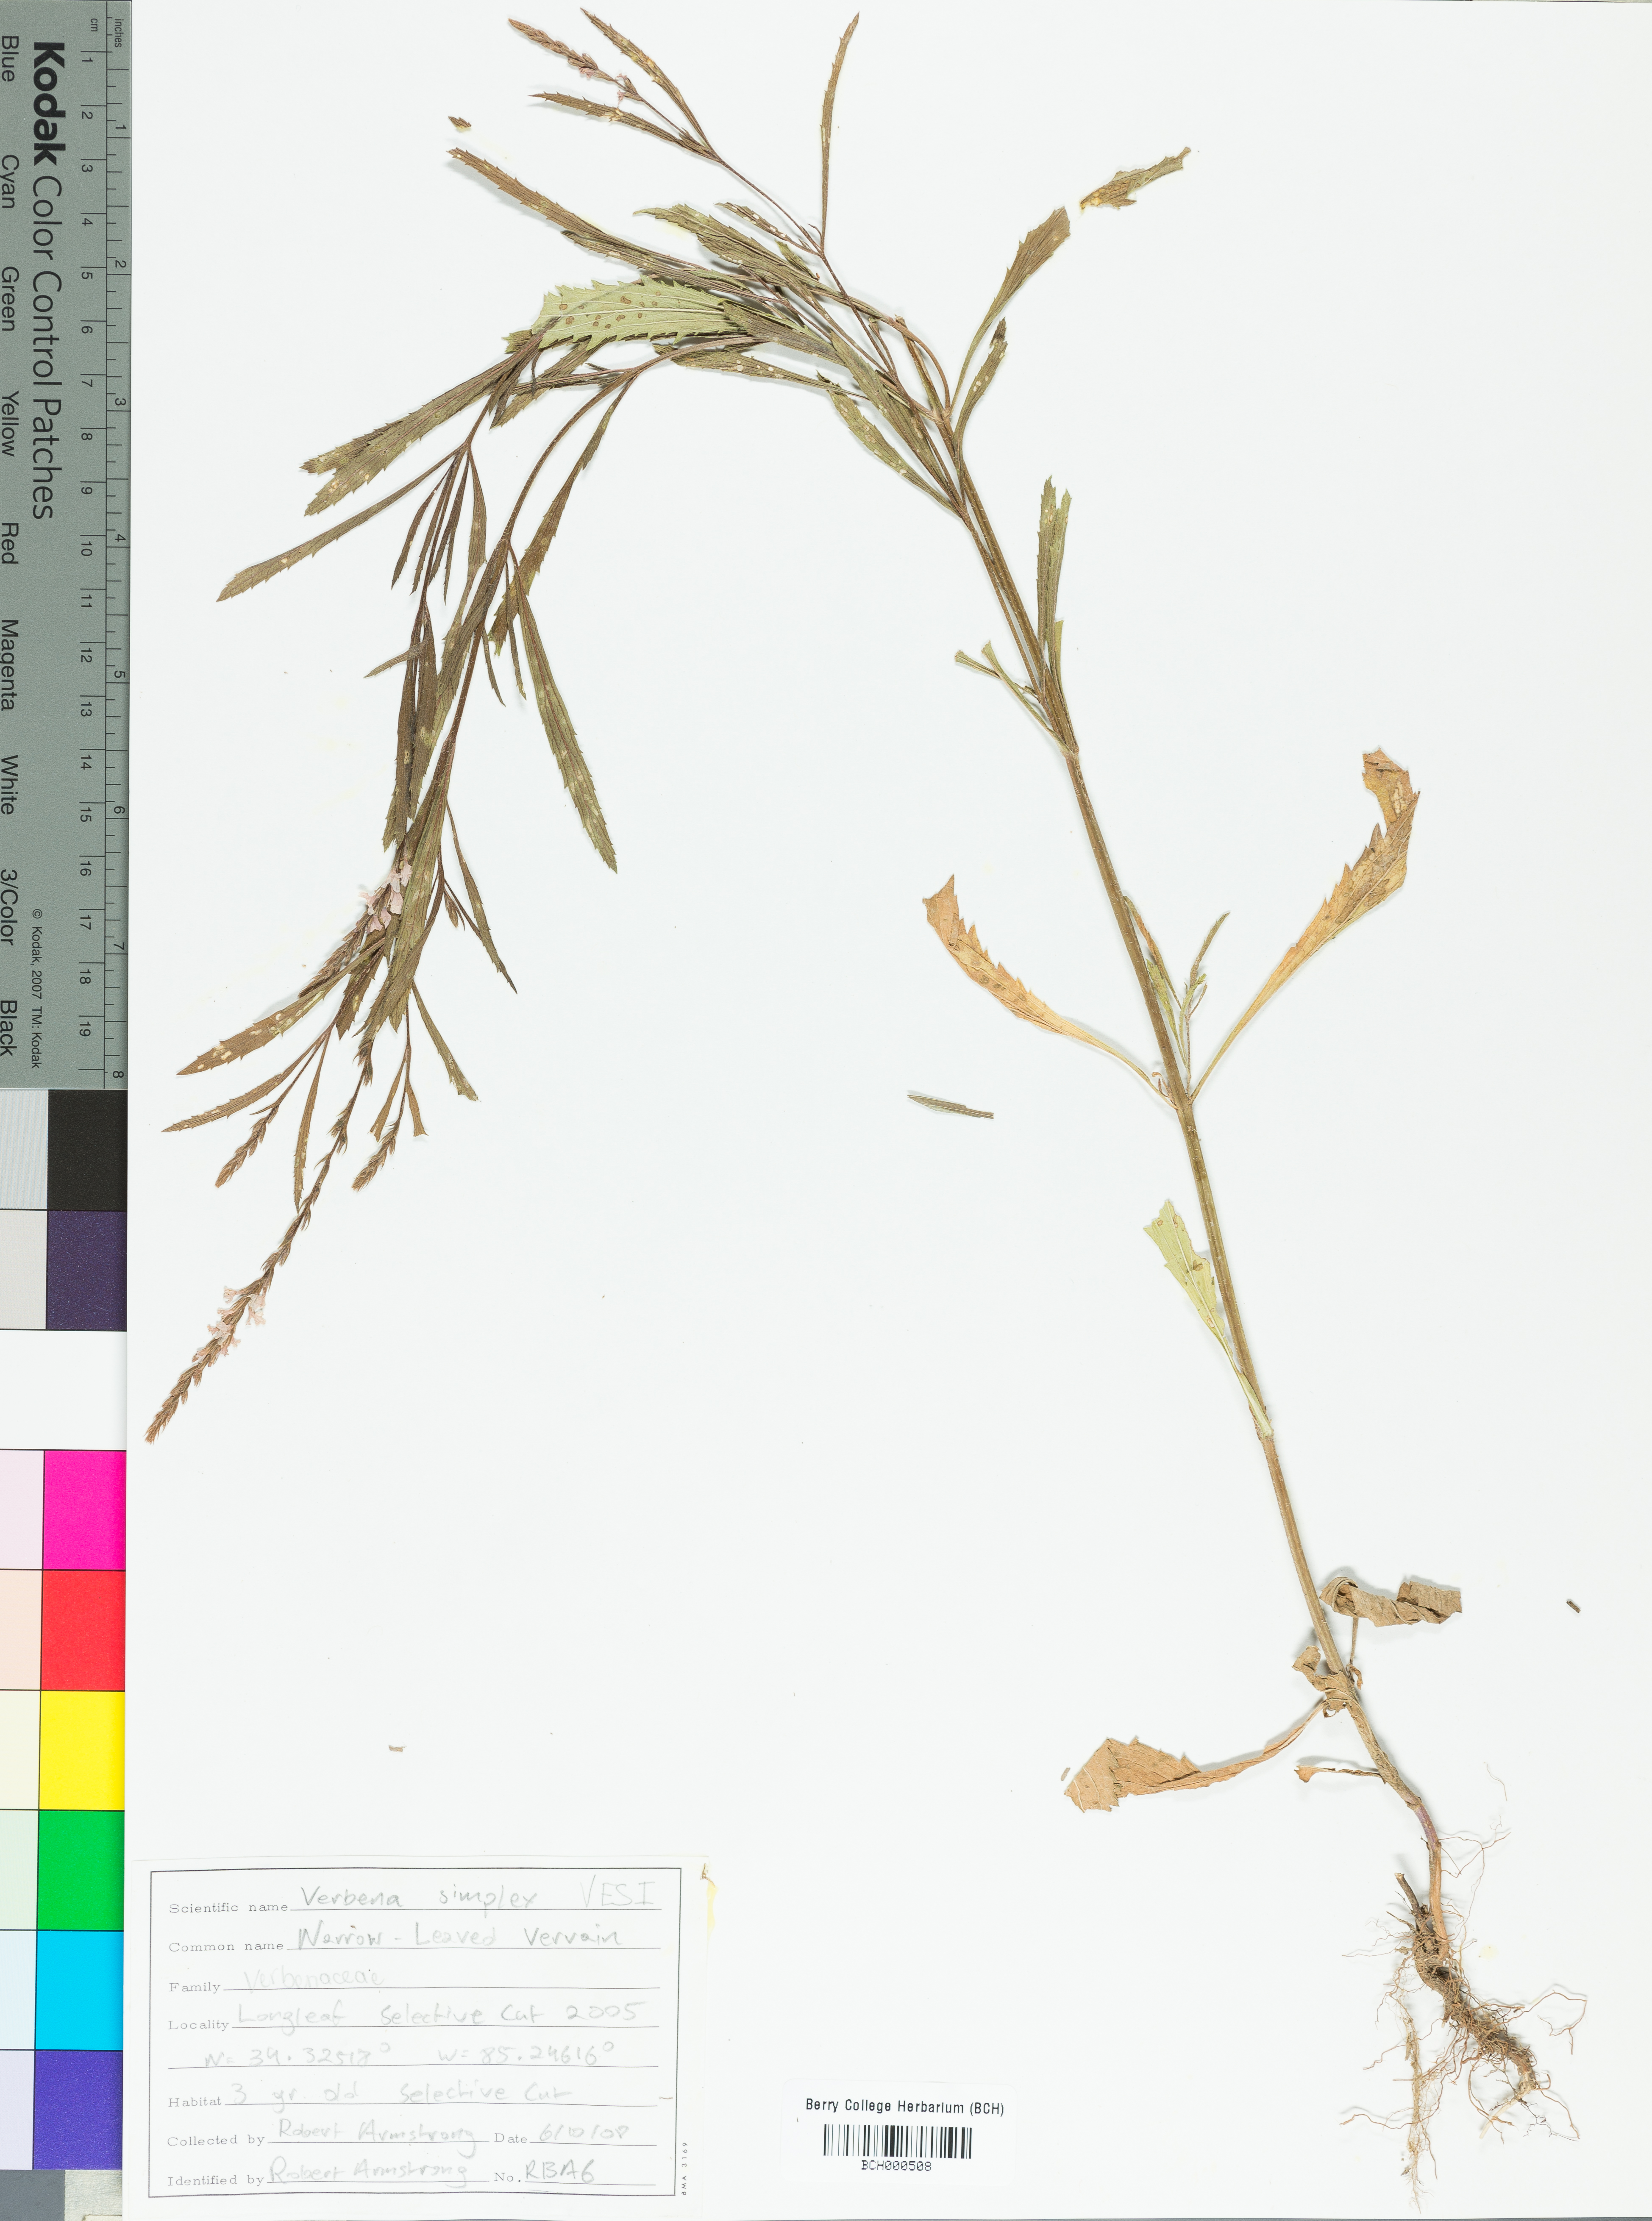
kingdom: Plantae
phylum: Tracheophyta
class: Magnoliopsida
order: Lamiales
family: Verbenaceae
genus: Verbena
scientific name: Verbena simplex
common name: Narrow-leaf vervain
